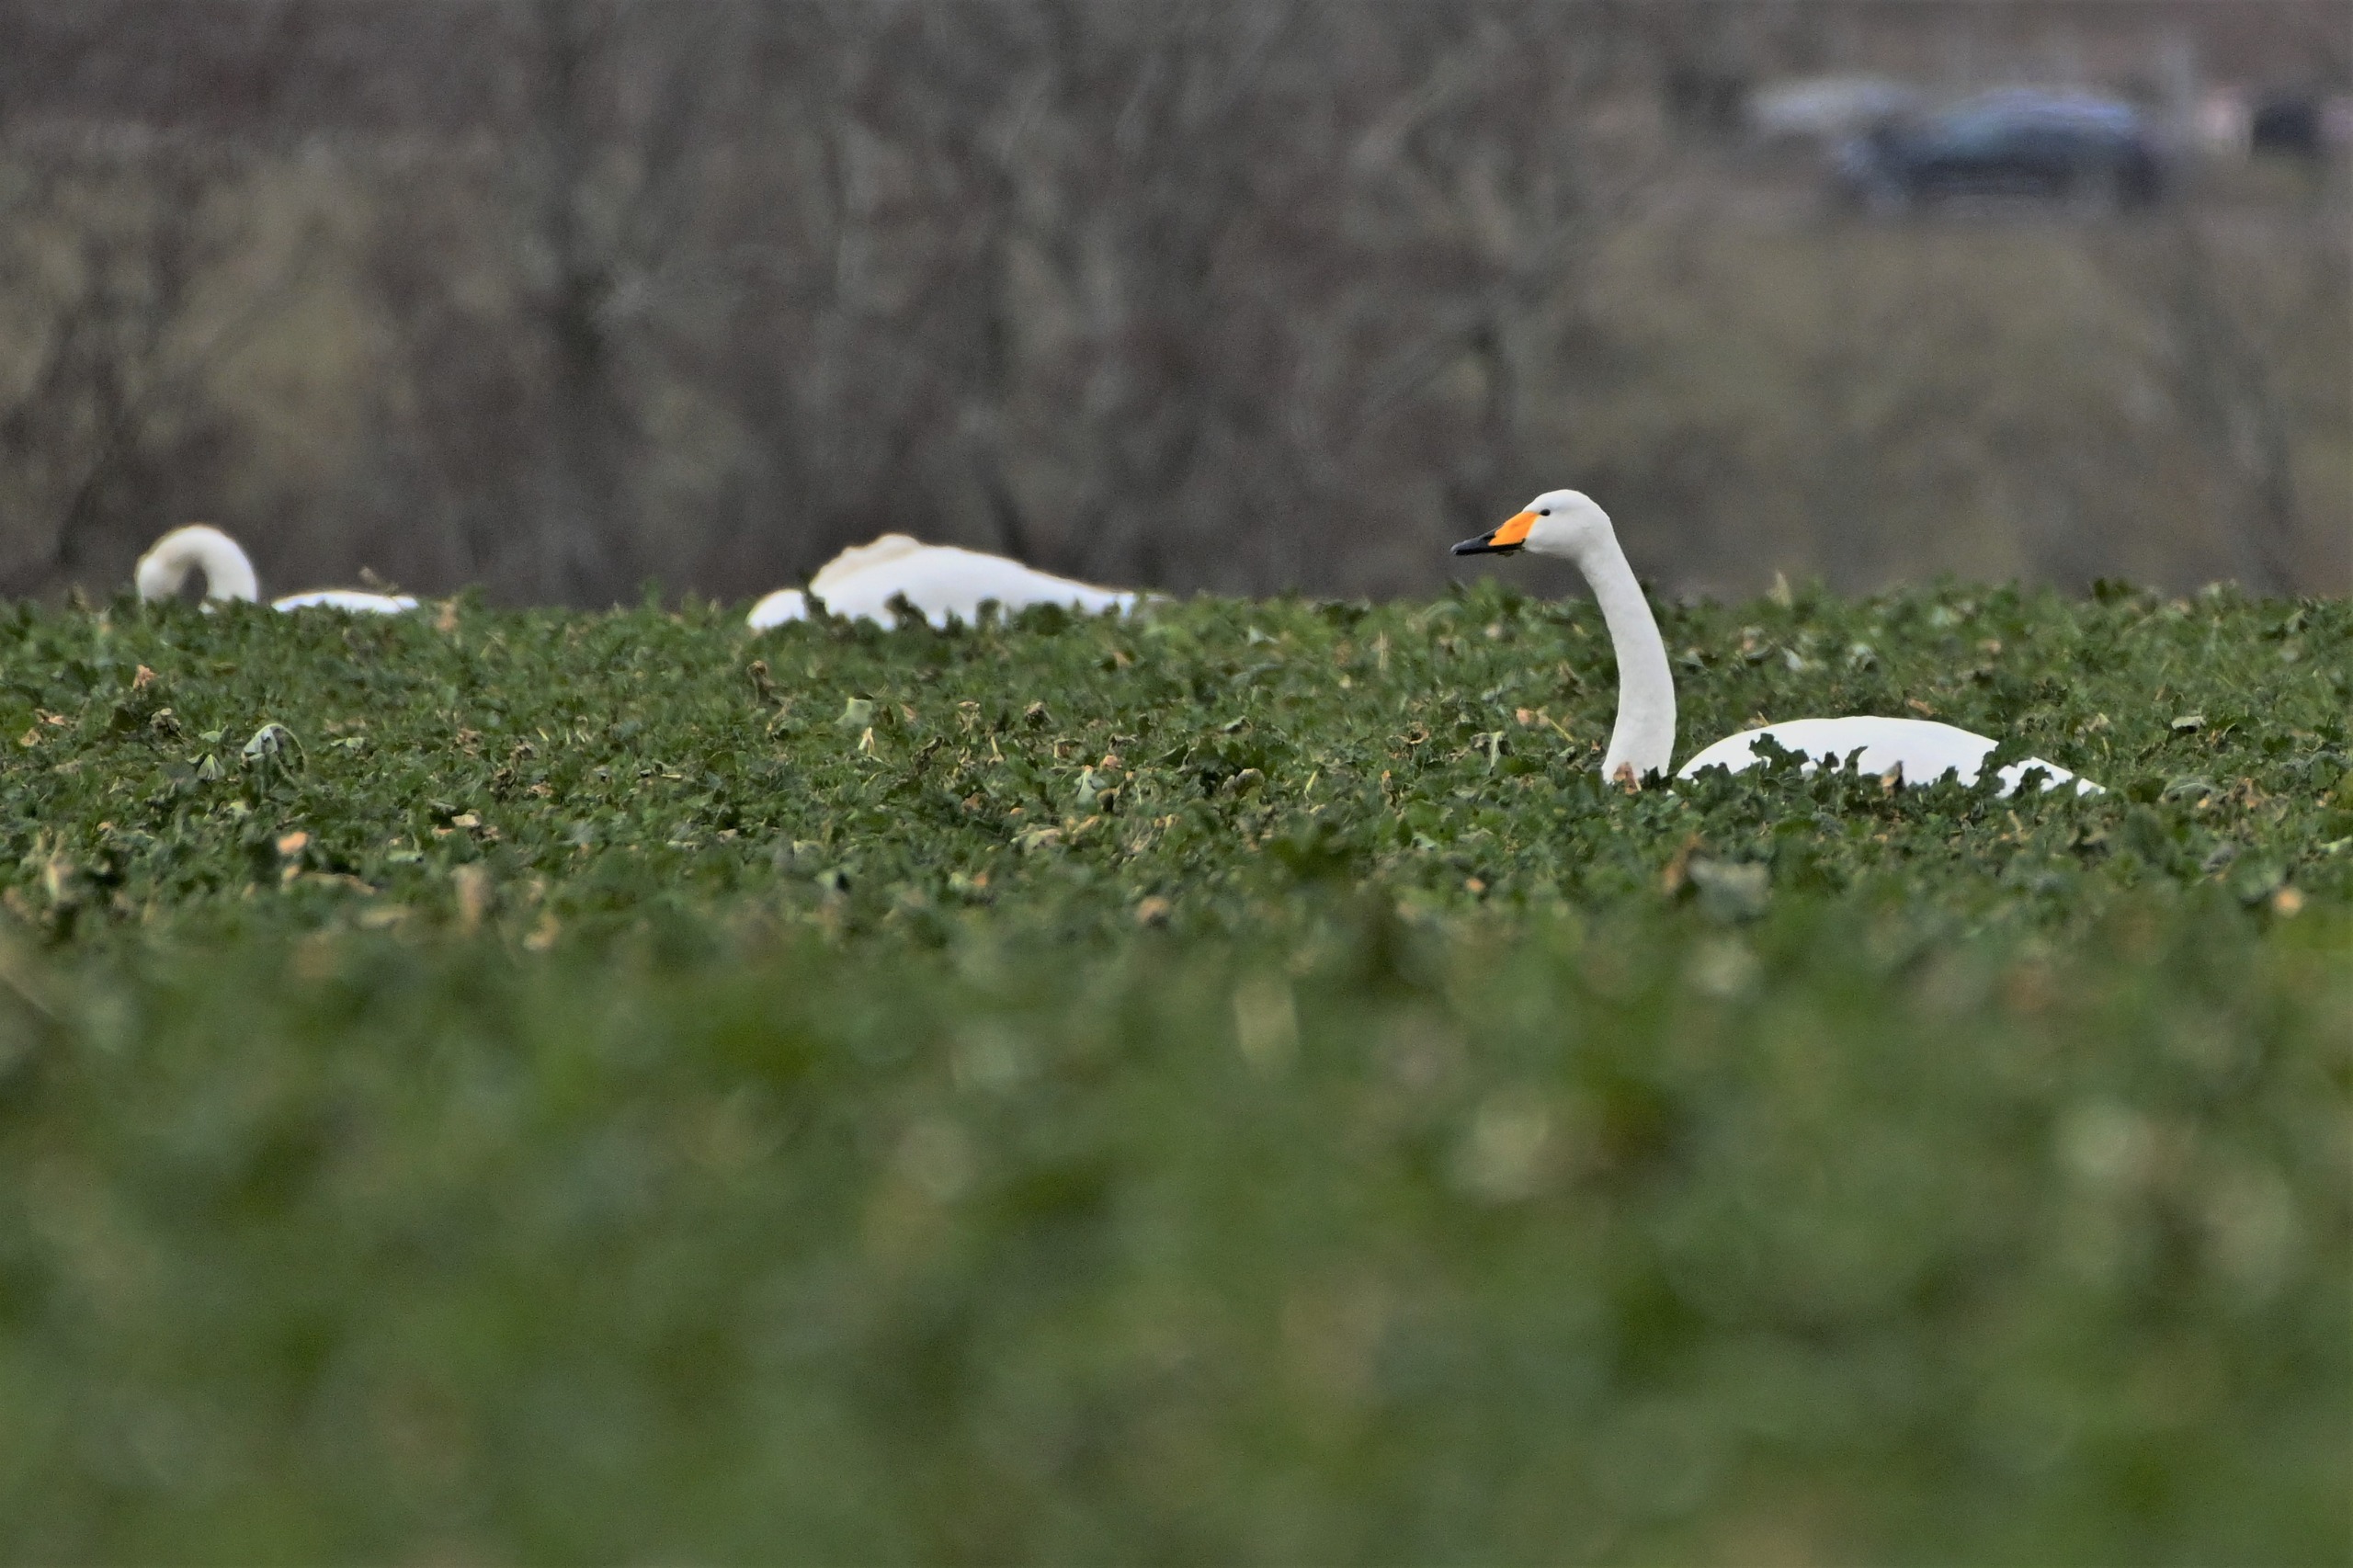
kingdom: Animalia
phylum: Chordata
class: Aves
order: Anseriformes
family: Anatidae
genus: Cygnus
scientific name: Cygnus cygnus
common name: Sangsvane
